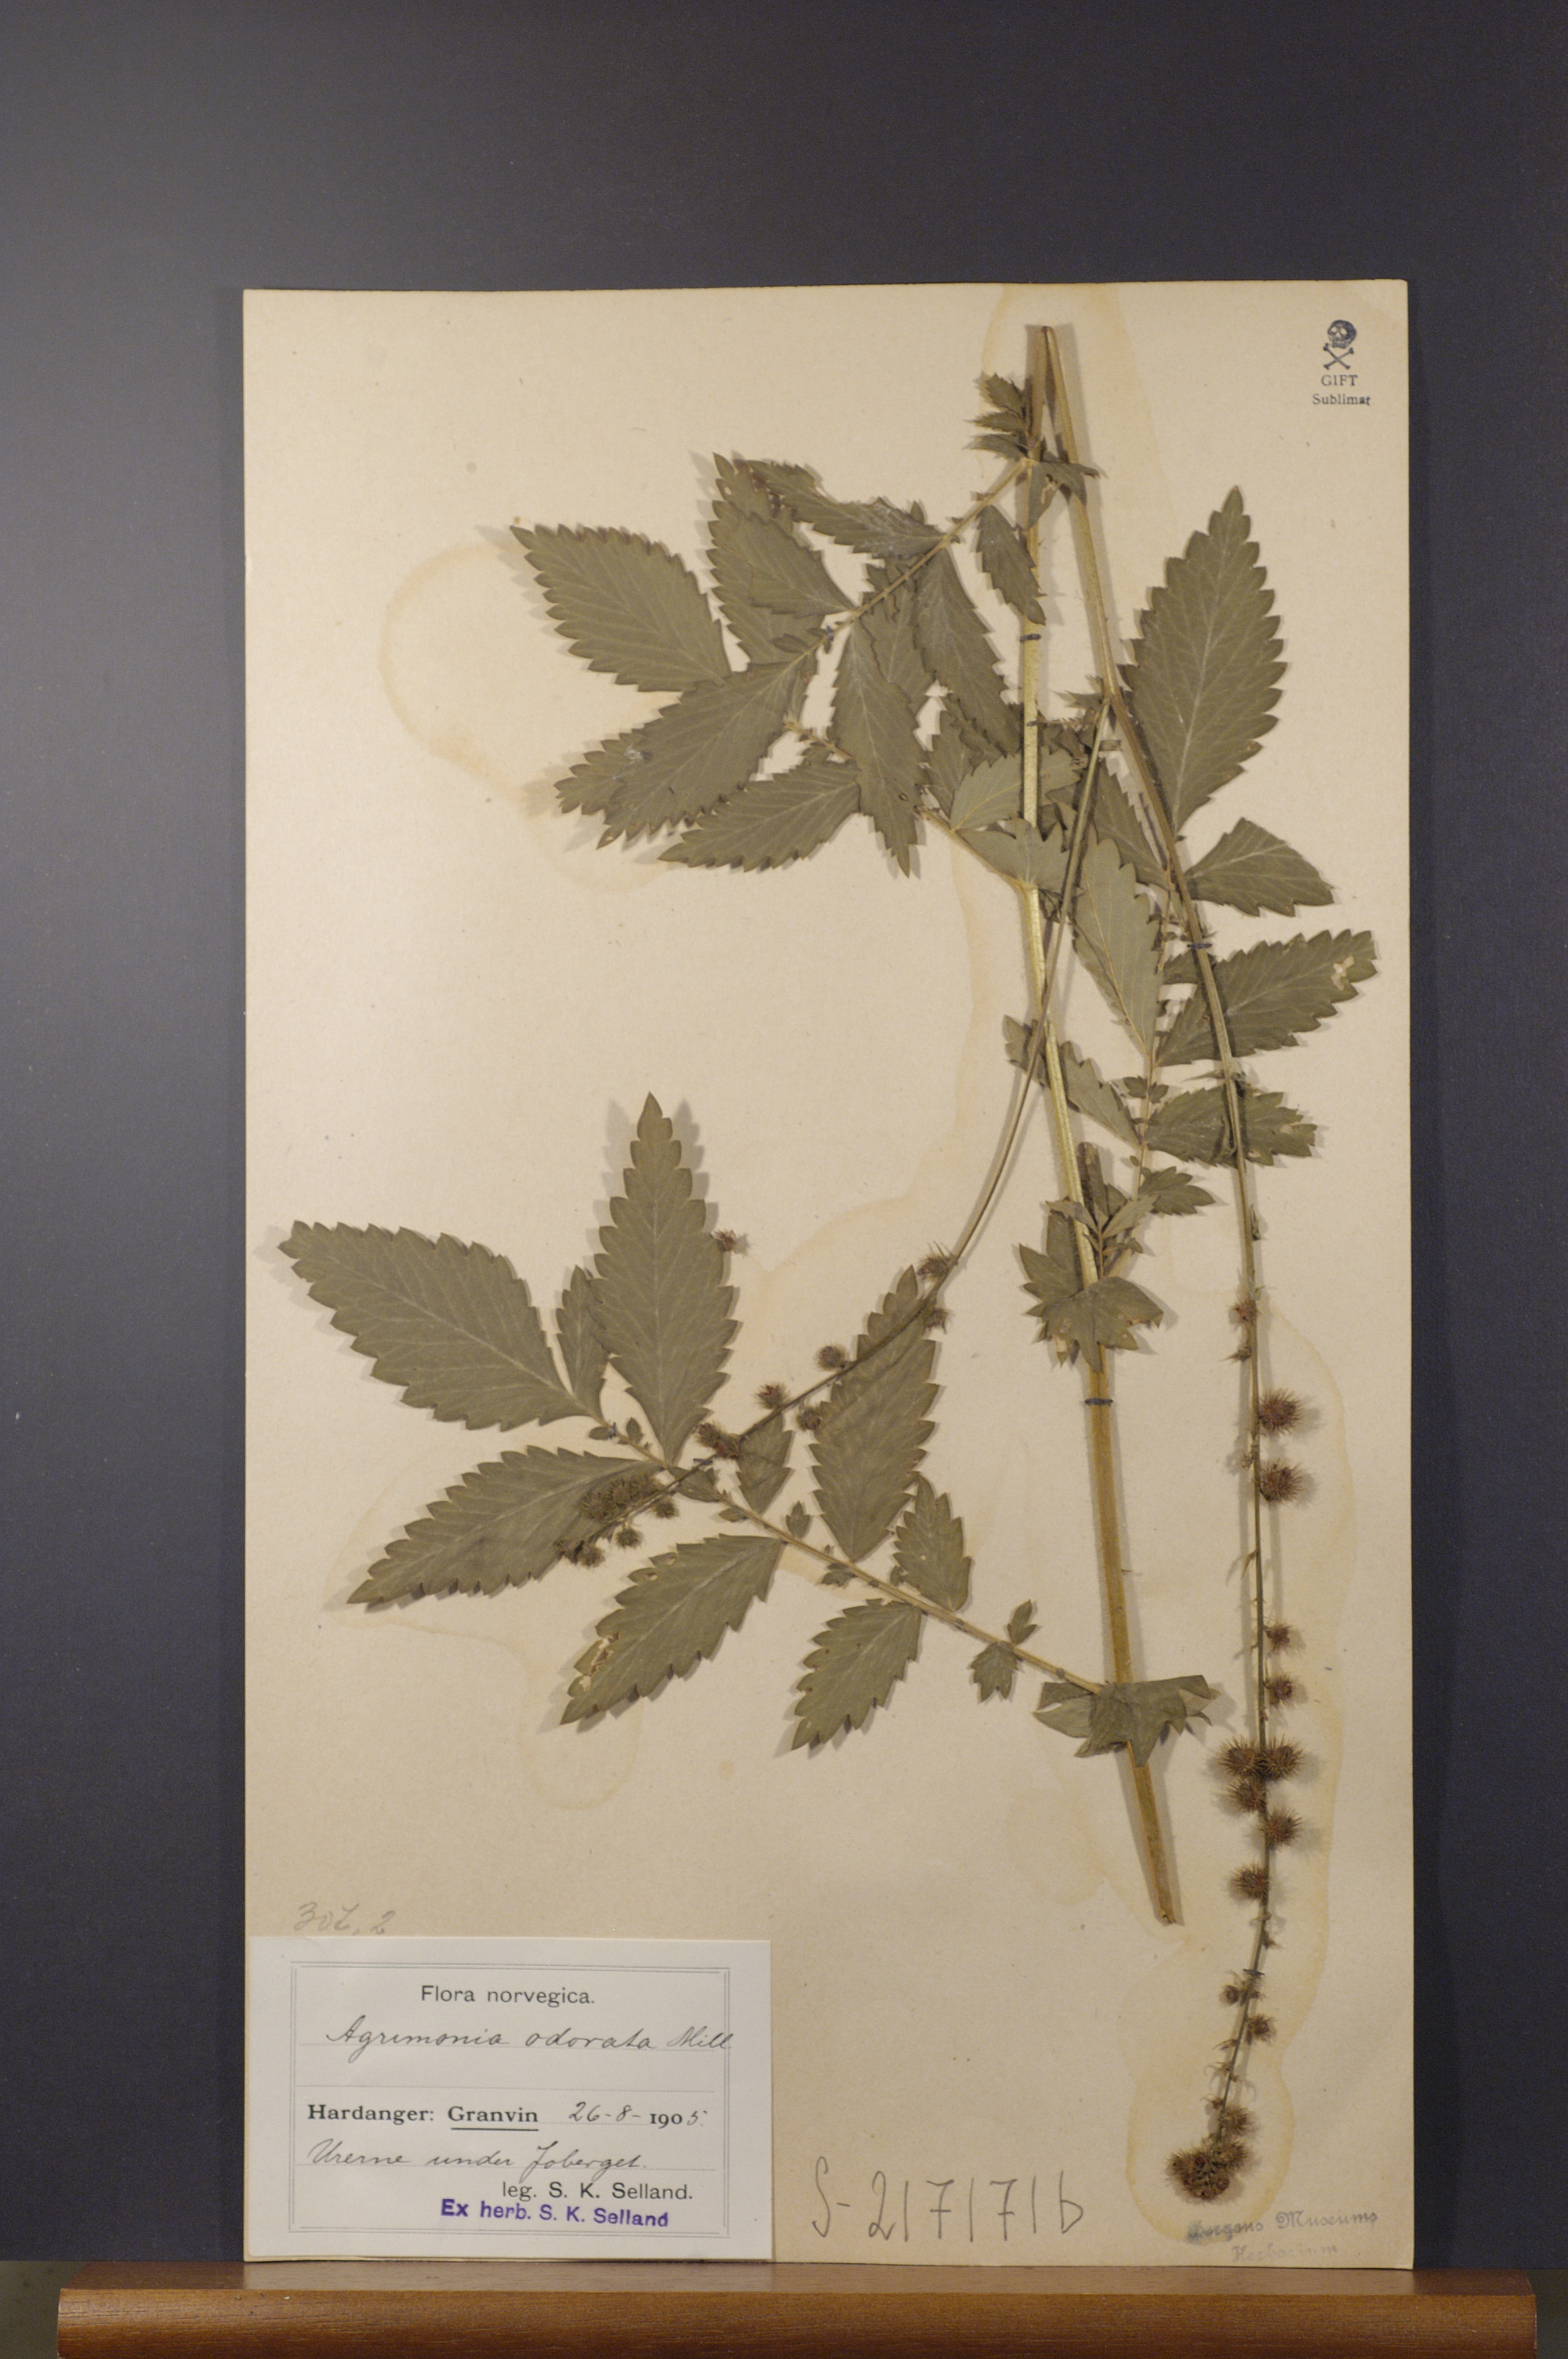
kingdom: Plantae
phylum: Tracheophyta
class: Magnoliopsida
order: Rosales
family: Rosaceae
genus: Agrimonia
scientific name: Agrimonia procera
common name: Fragrant agrimony
